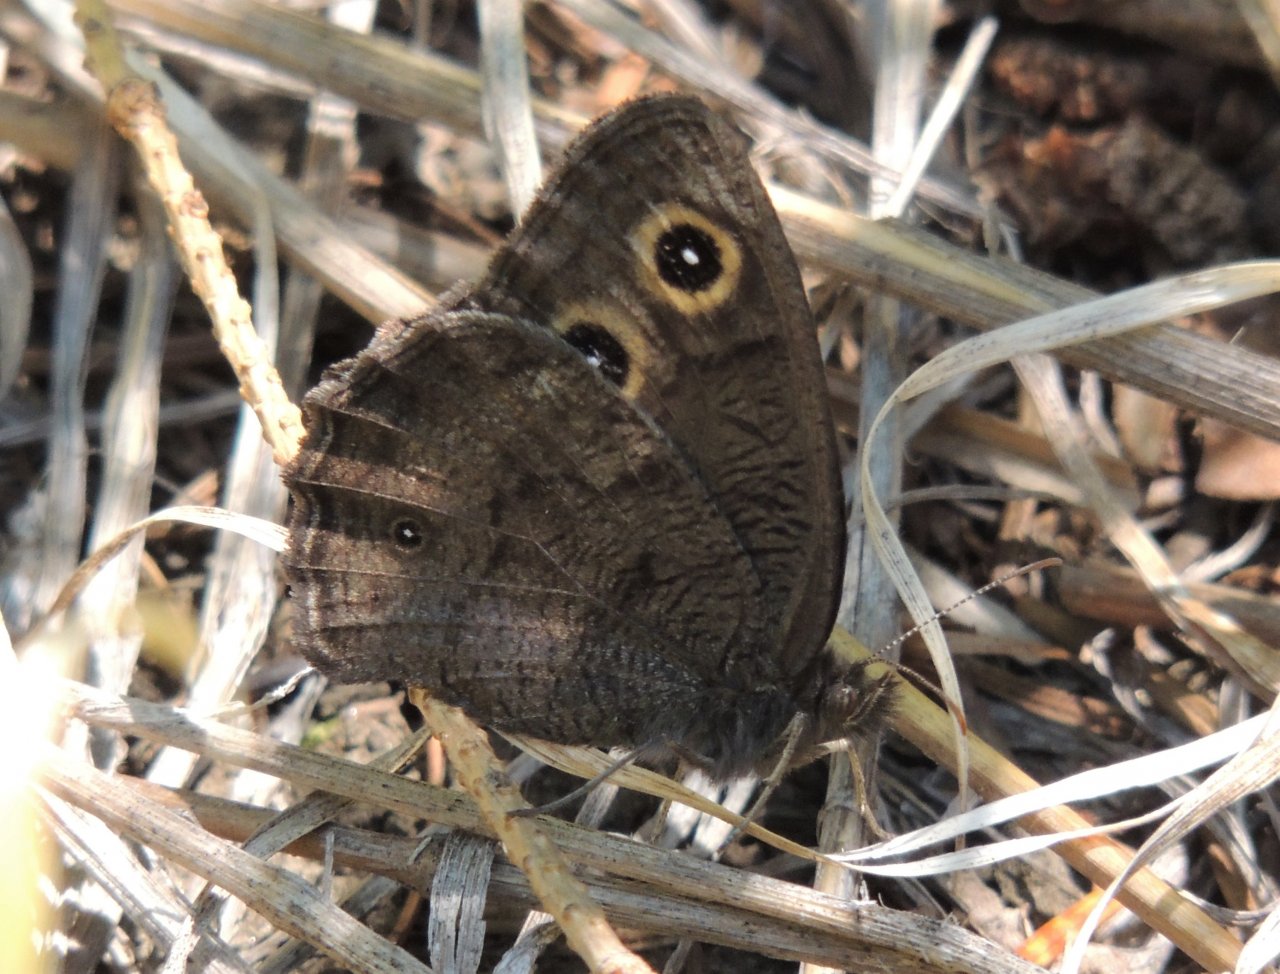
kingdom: Animalia
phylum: Arthropoda
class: Insecta
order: Lepidoptera
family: Nymphalidae
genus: Cercyonis
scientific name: Cercyonis pegala
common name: Common Wood-Nymph
